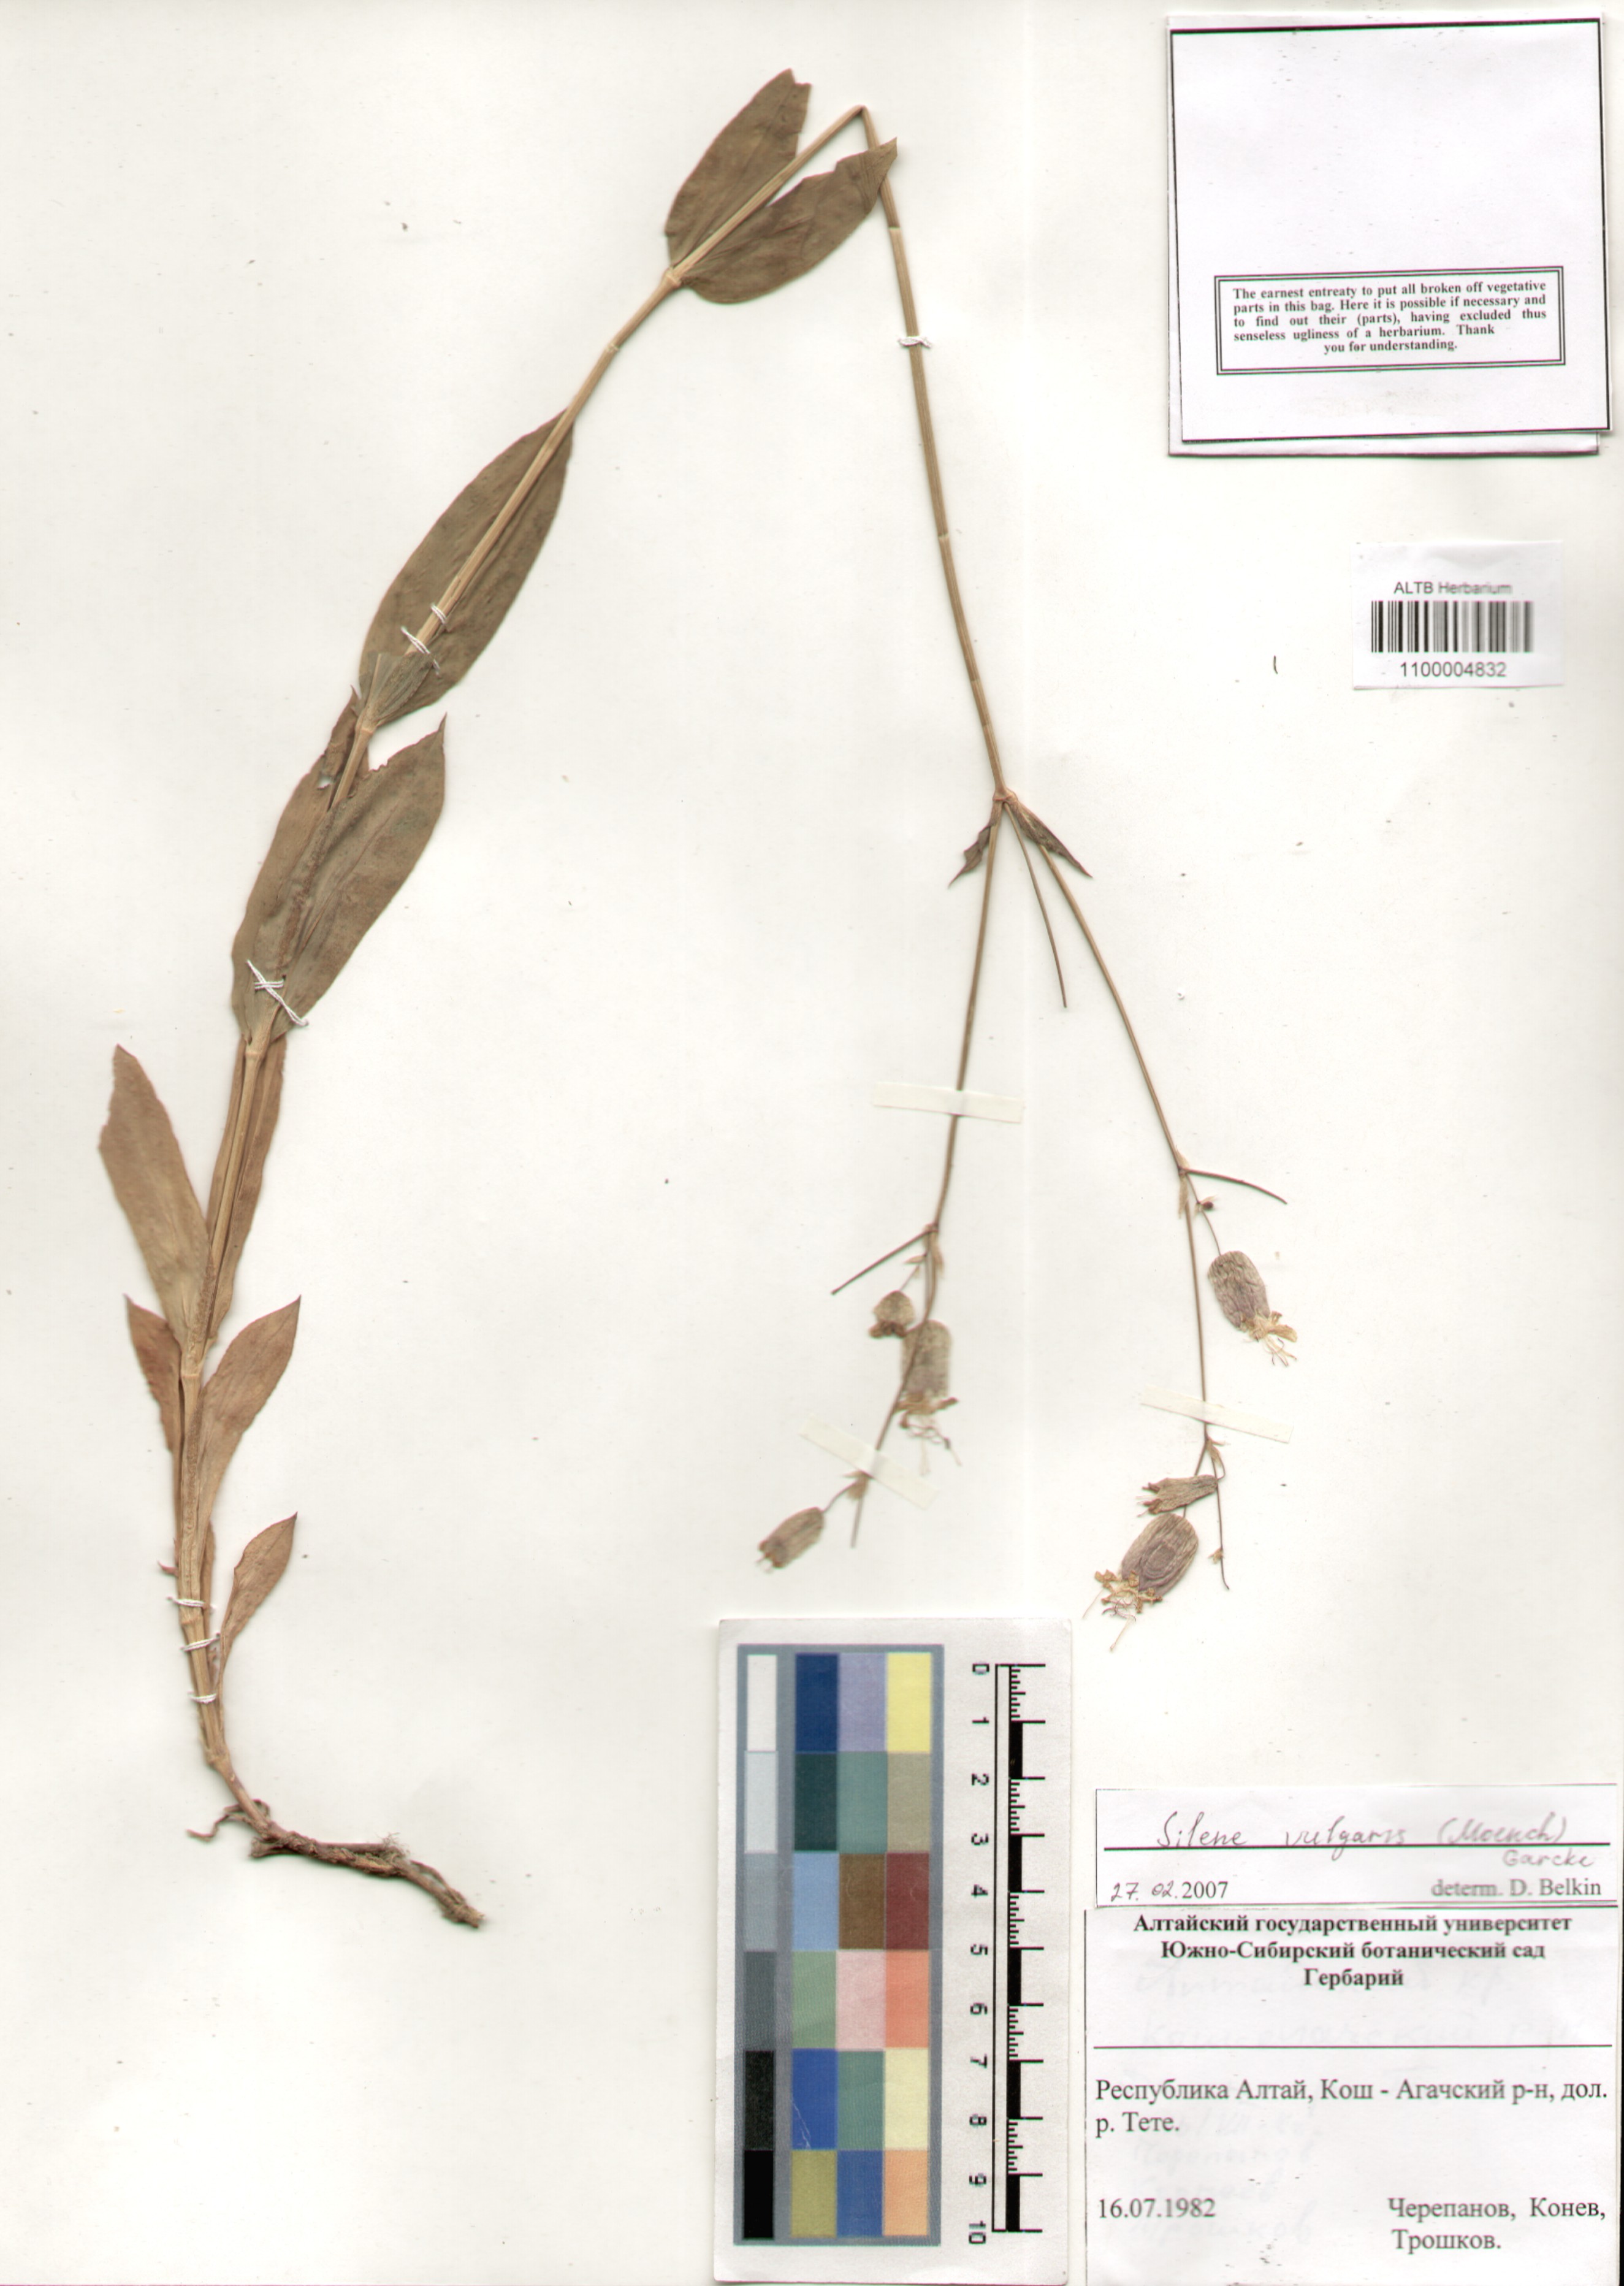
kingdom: Plantae
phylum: Tracheophyta
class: Magnoliopsida
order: Caryophyllales
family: Caryophyllaceae
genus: Silene
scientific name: Silene vulgaris
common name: Bladder campion
